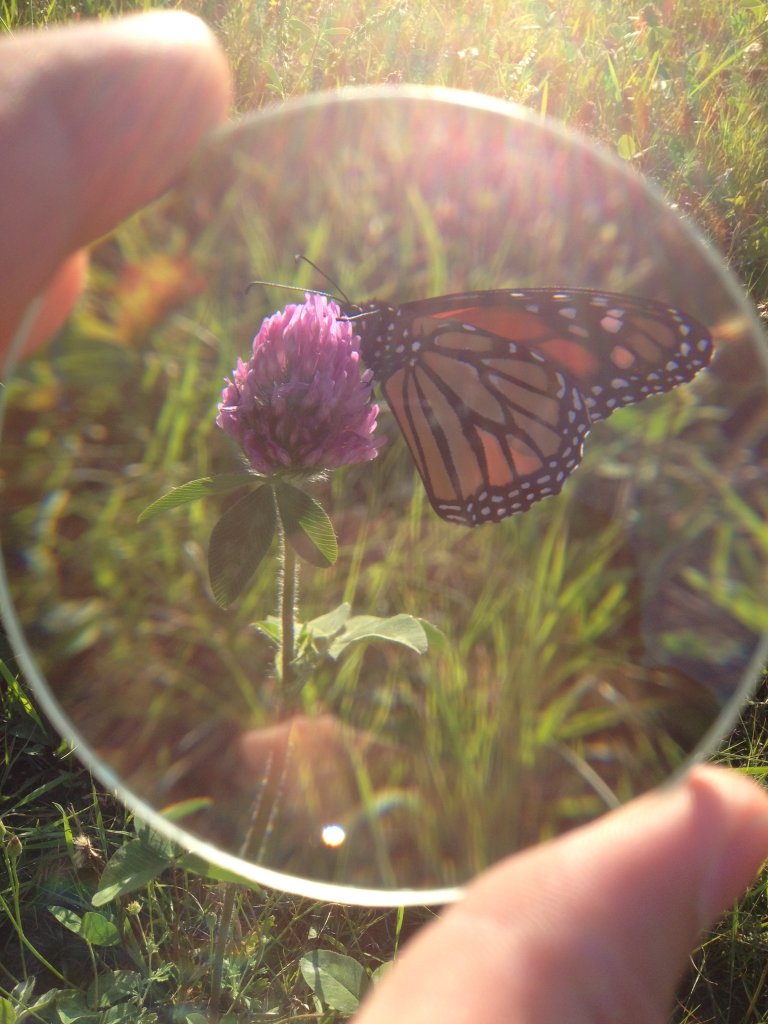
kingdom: Animalia
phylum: Arthropoda
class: Insecta
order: Lepidoptera
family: Nymphalidae
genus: Danaus
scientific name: Danaus plexippus
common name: Monarch
